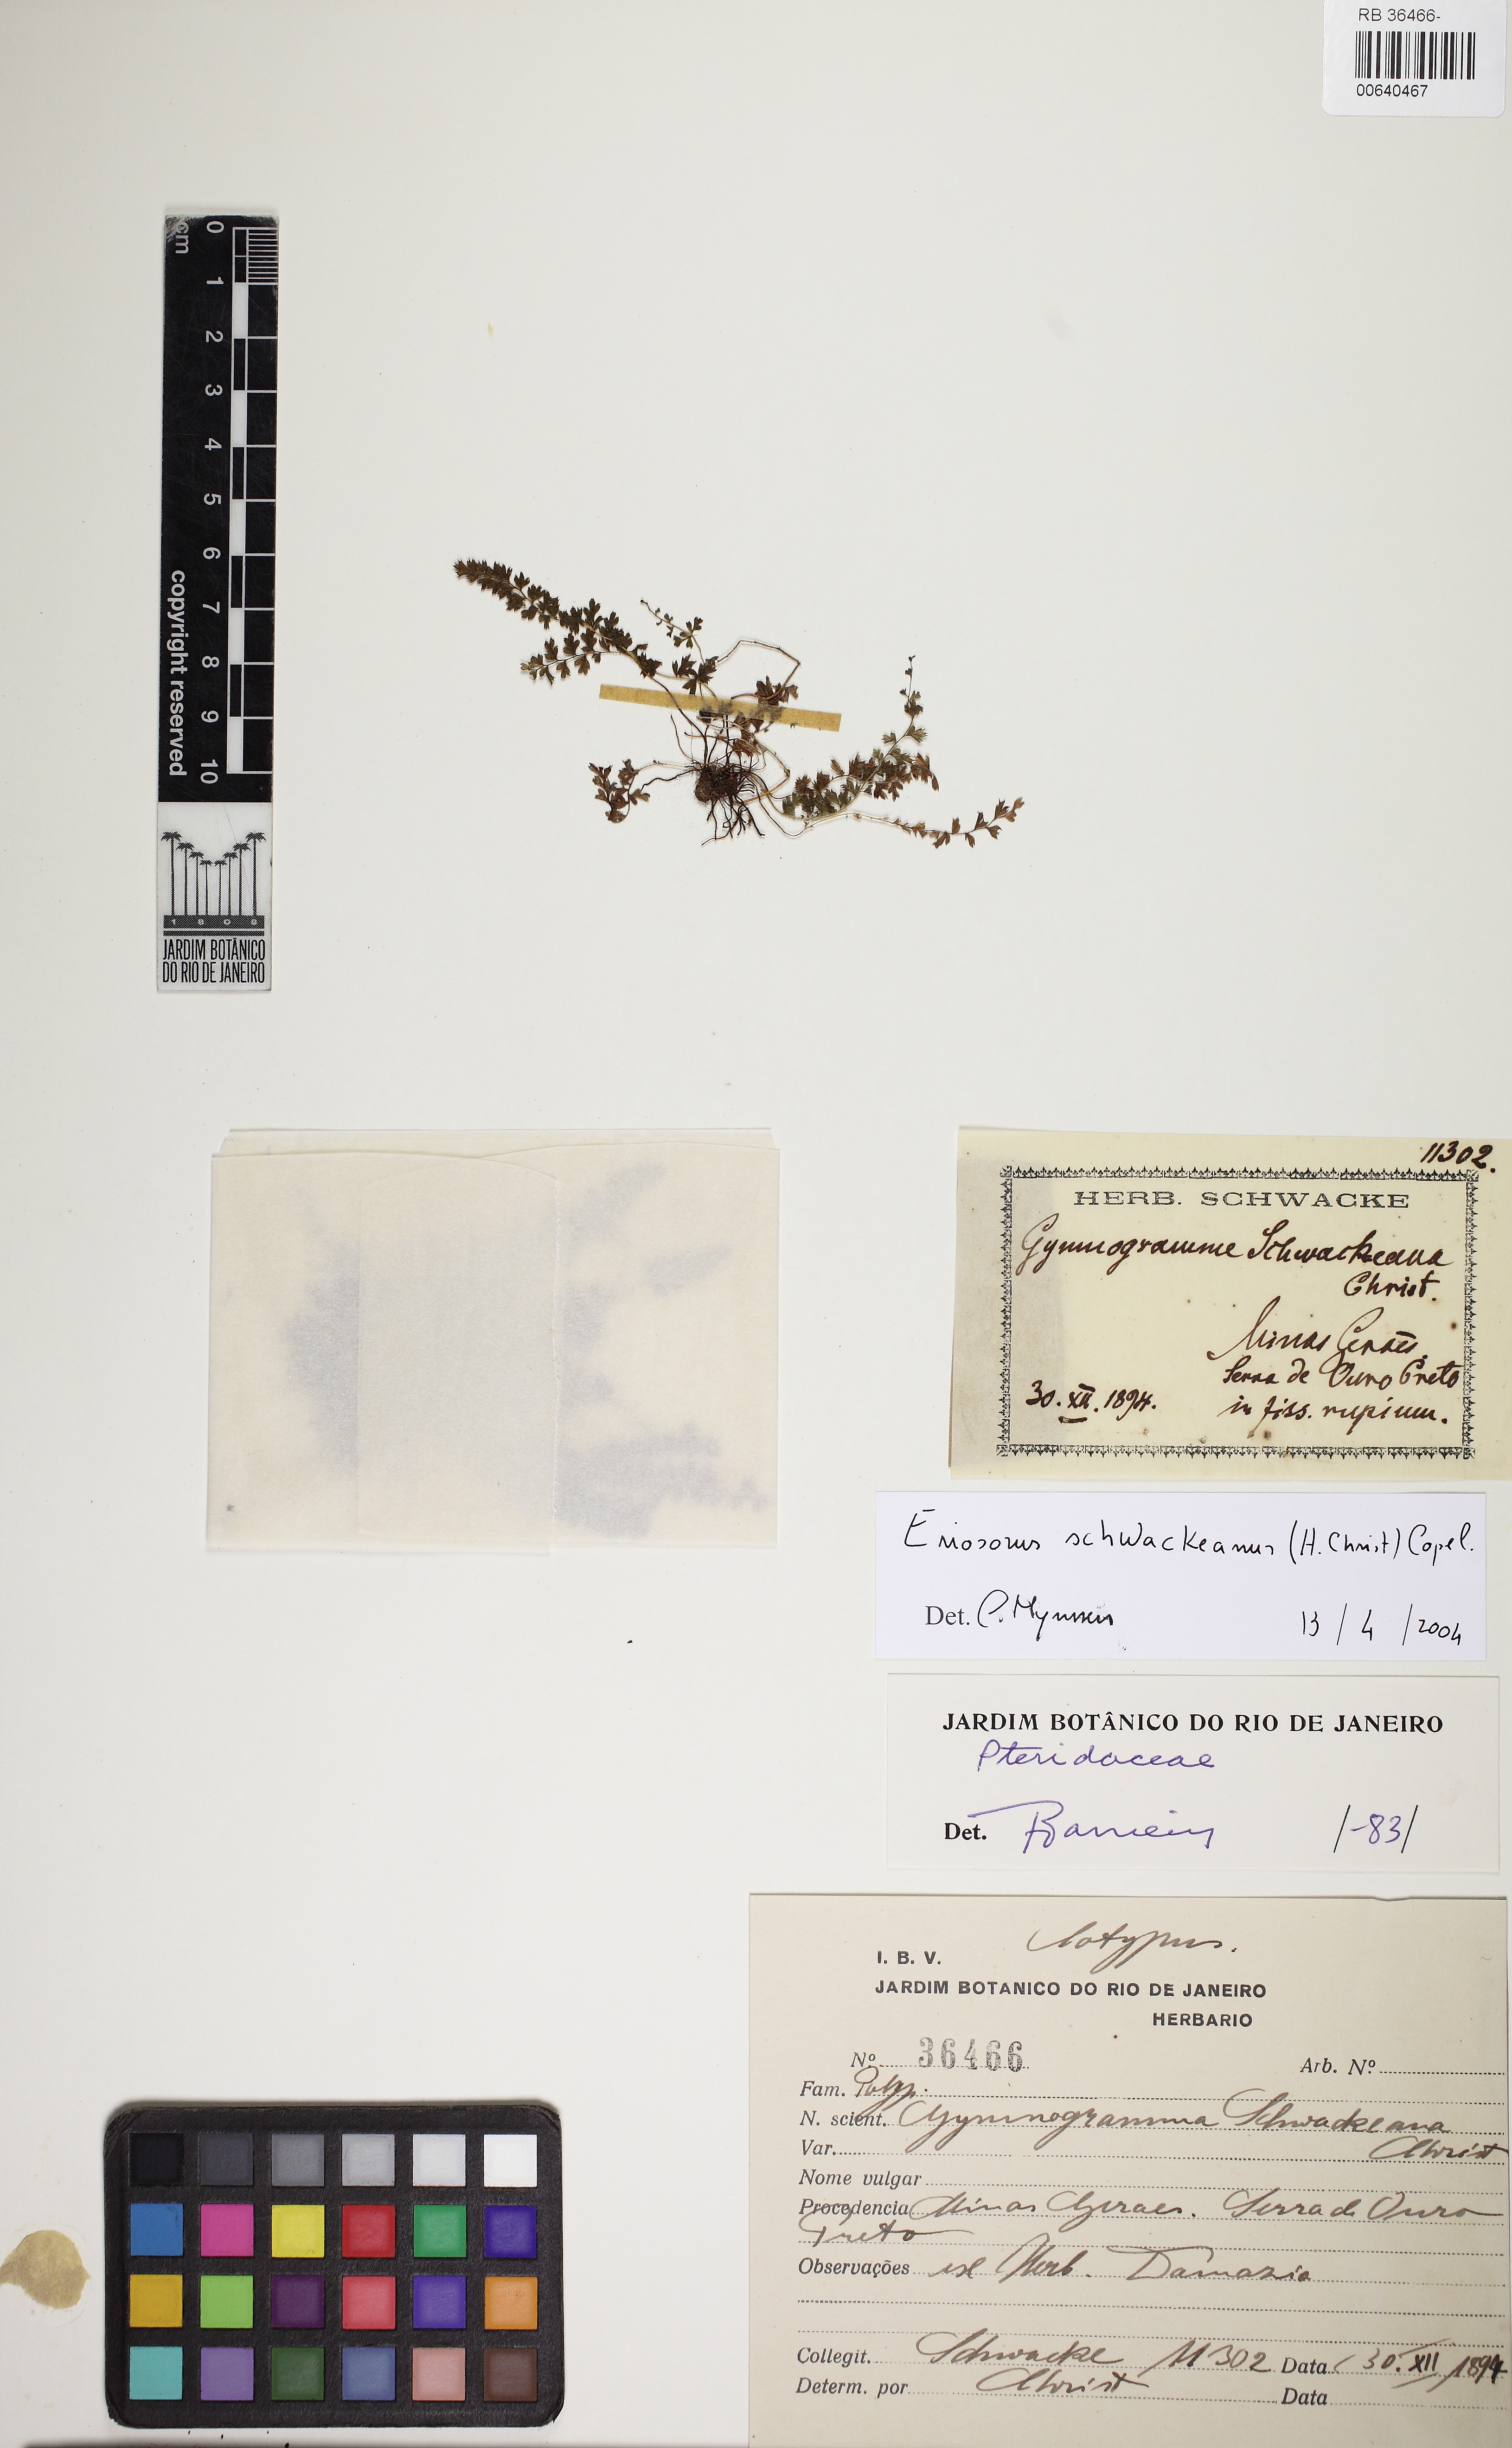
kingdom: Plantae
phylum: Tracheophyta
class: Polypodiopsida
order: Polypodiales
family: Pteridaceae
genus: Tryonia
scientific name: Tryonia schwackeana
